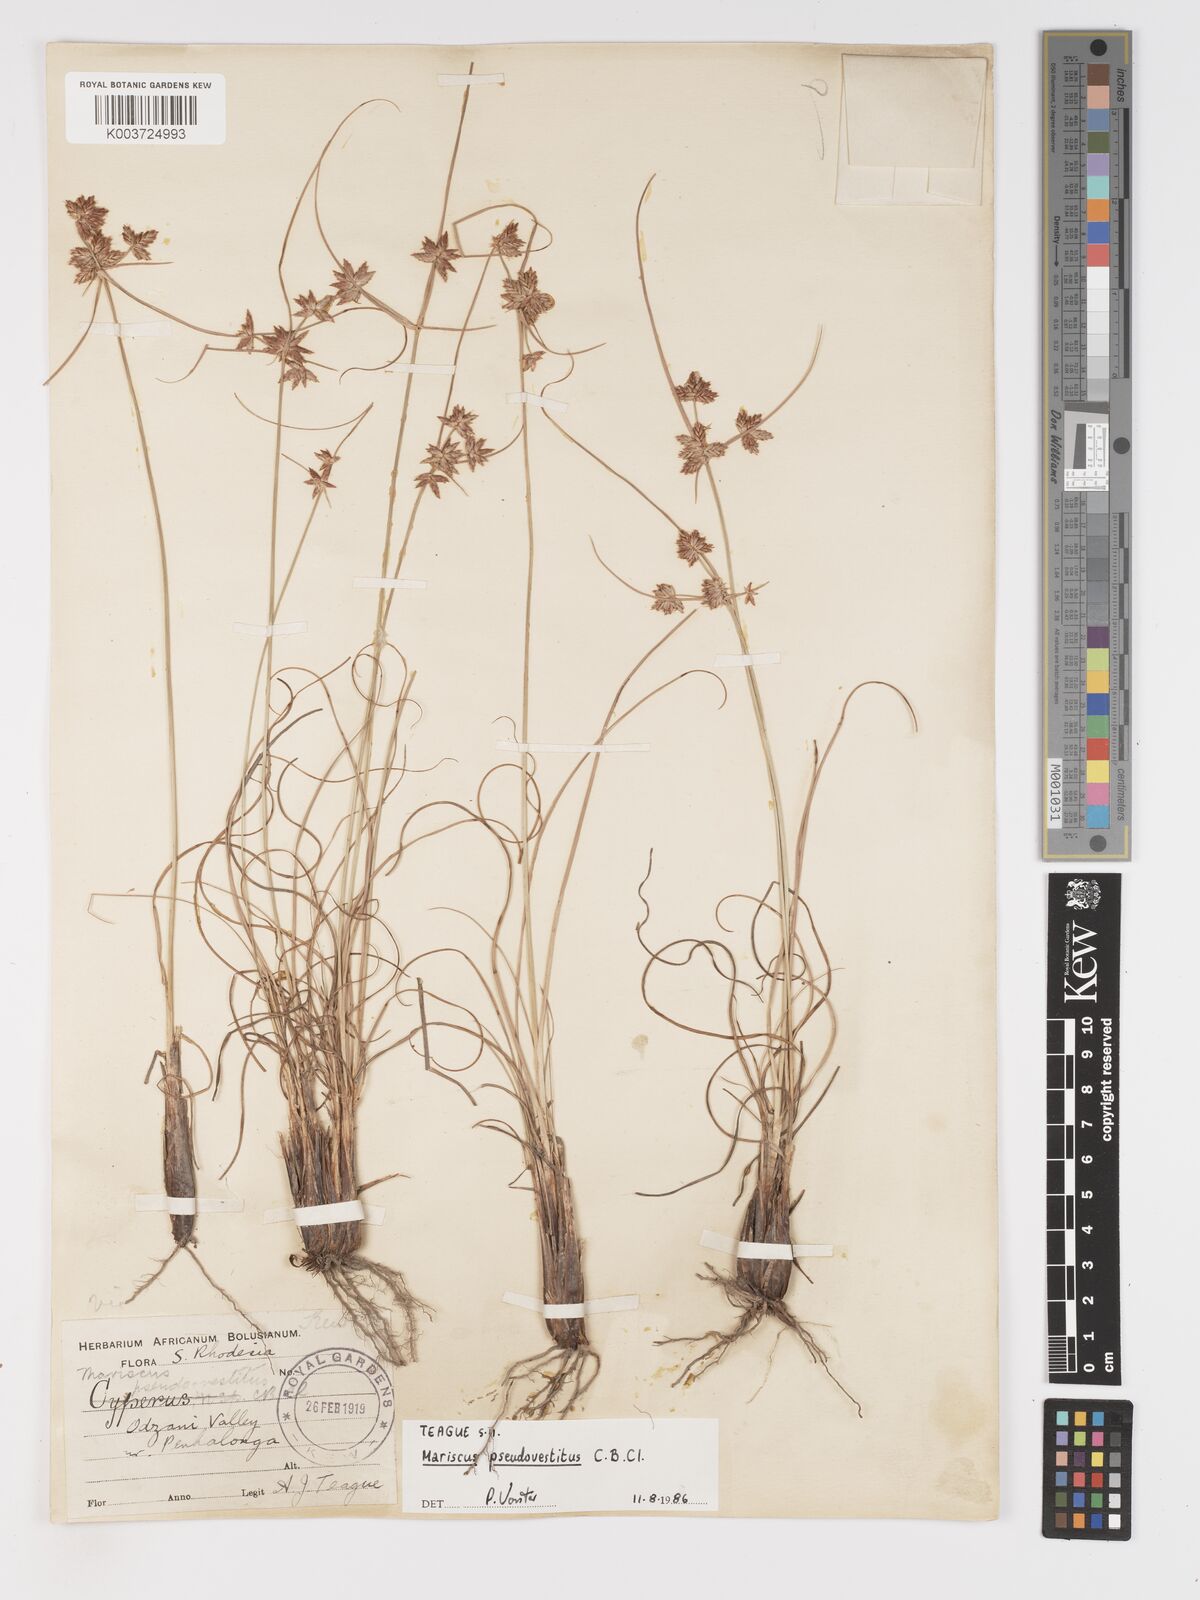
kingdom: Plantae
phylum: Tracheophyta
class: Liliopsida
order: Poales
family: Cyperaceae
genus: Cyperus
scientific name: Cyperus pseudovestitus
